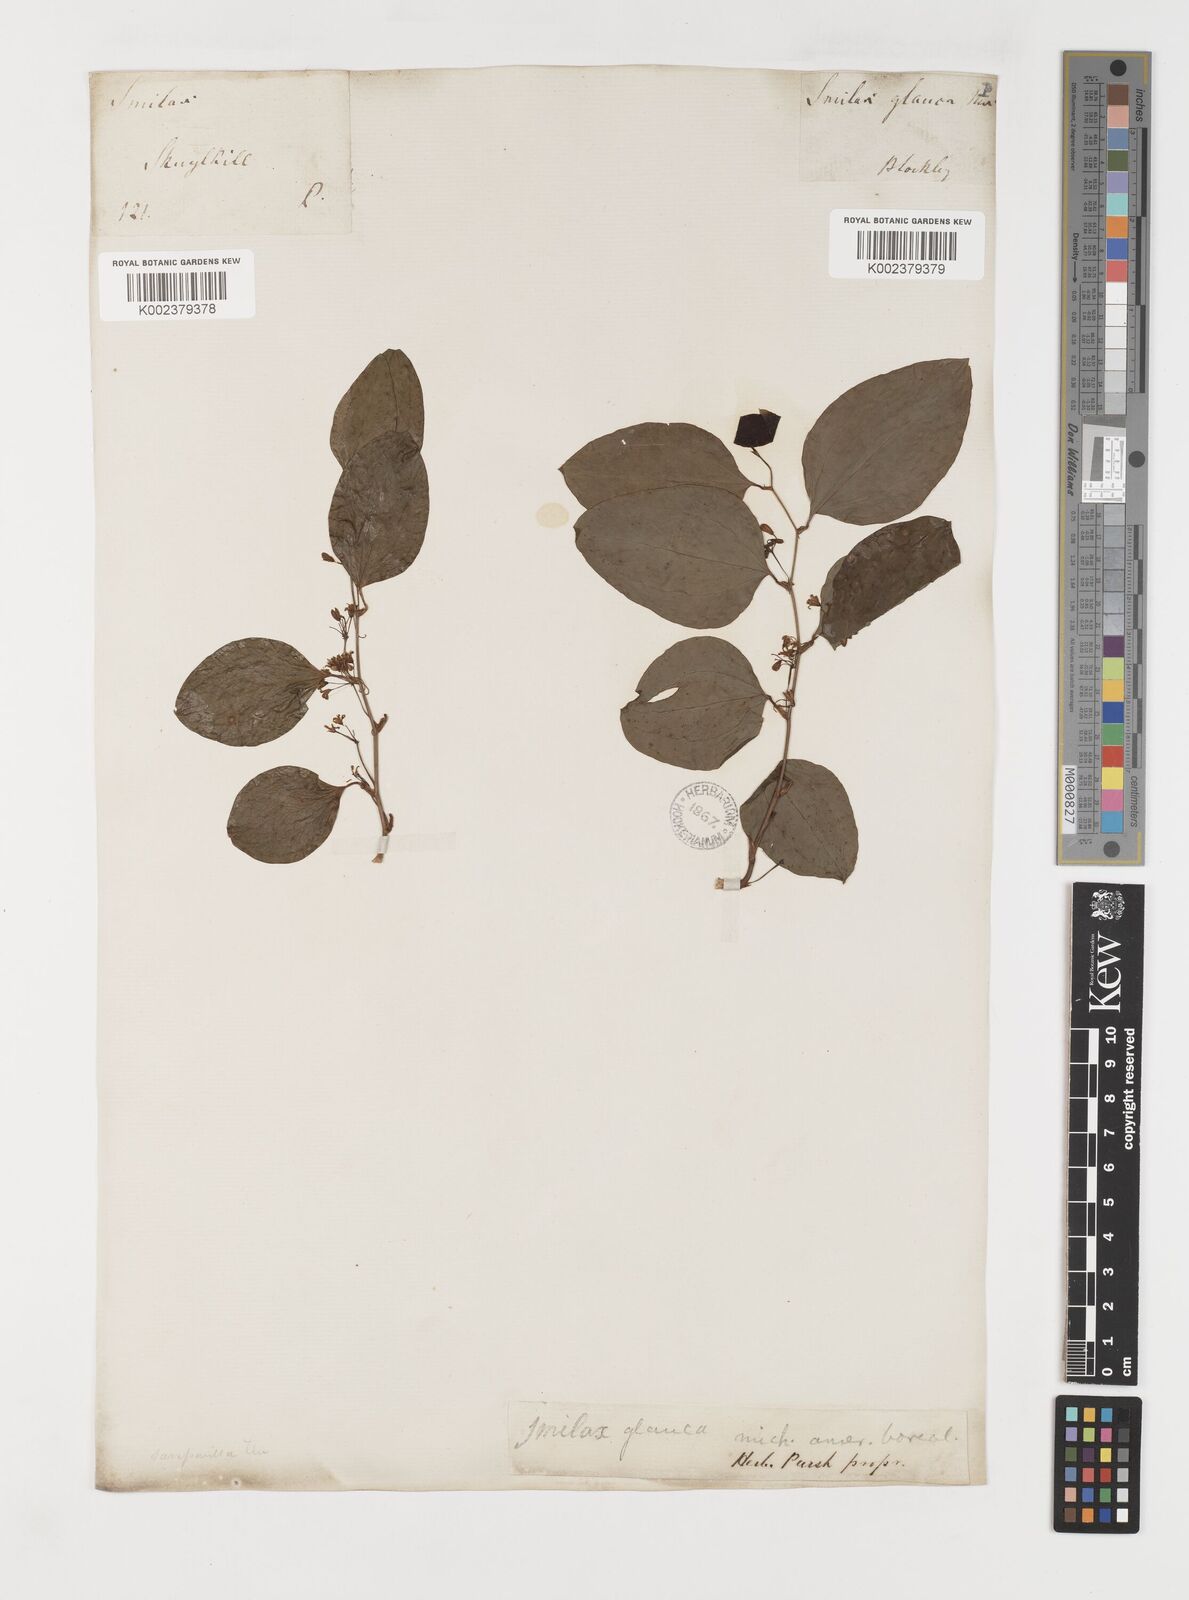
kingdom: Plantae
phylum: Tracheophyta
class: Liliopsida
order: Liliales
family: Smilacaceae
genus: Smilax
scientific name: Smilax glauca
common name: Cat greenbrier
